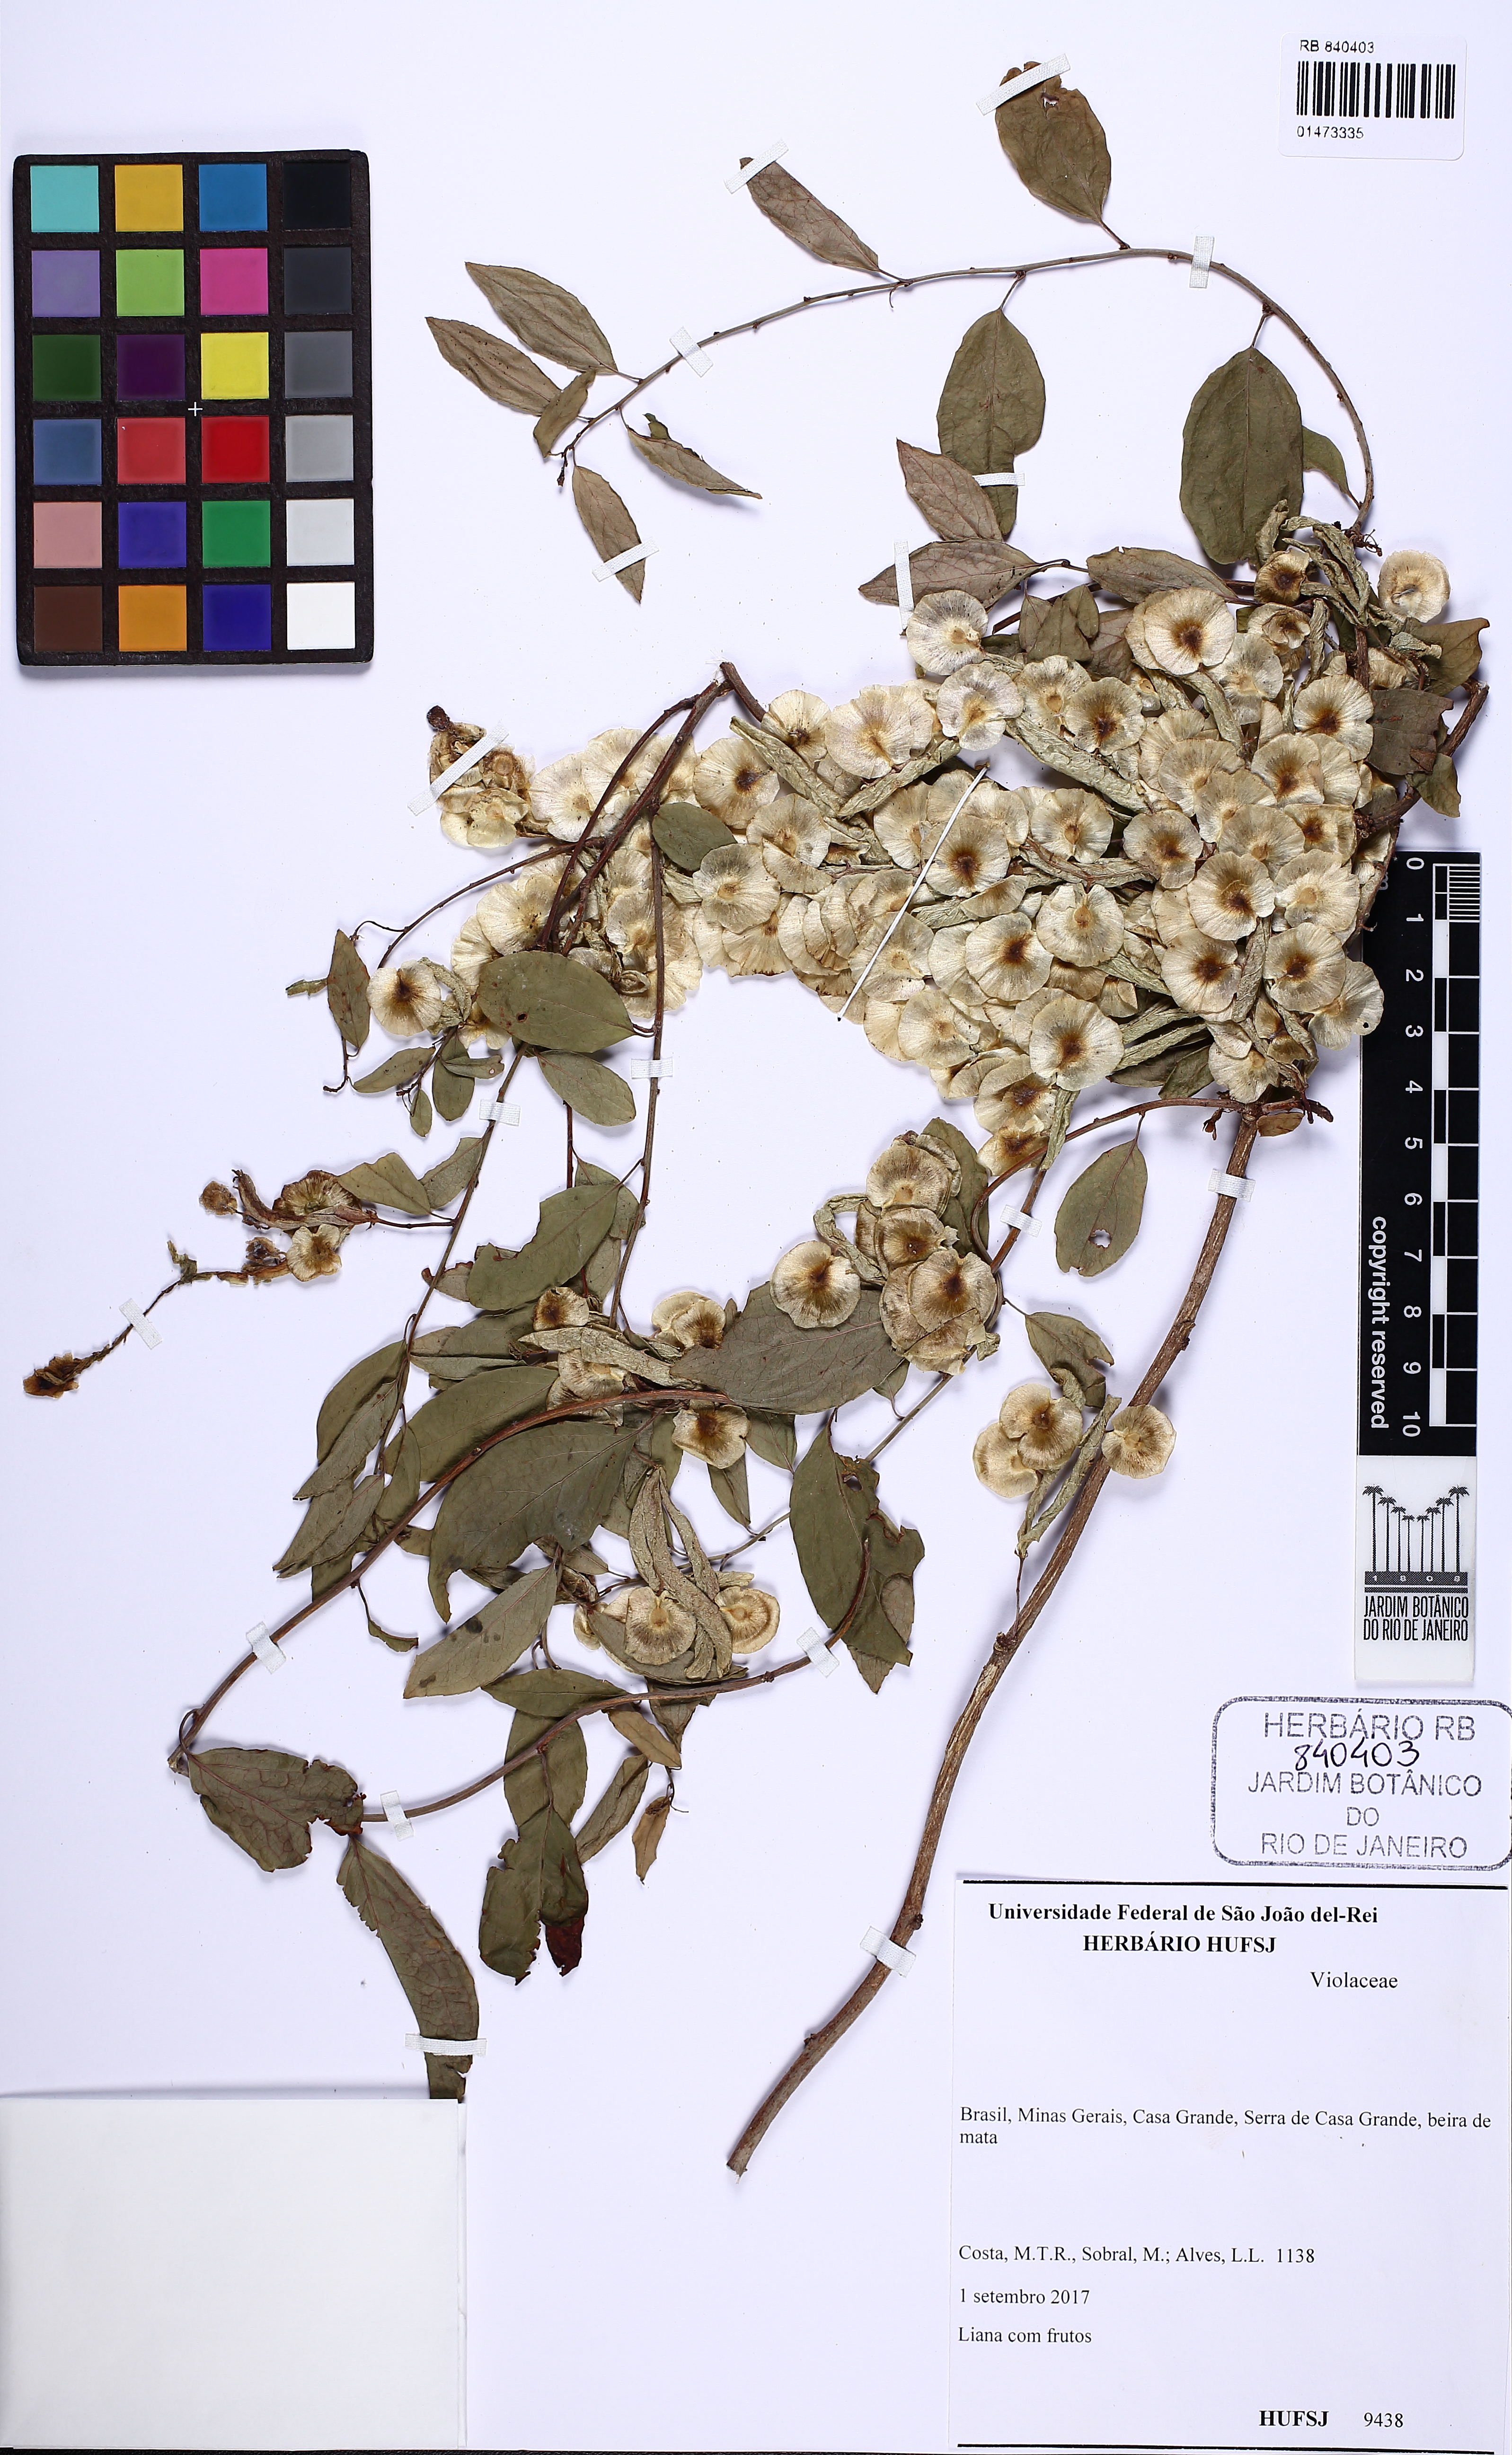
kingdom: Plantae
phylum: Tracheophyta
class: Magnoliopsida
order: Malpighiales
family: Violaceae
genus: Anchietea
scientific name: Anchietea pyrifolia
